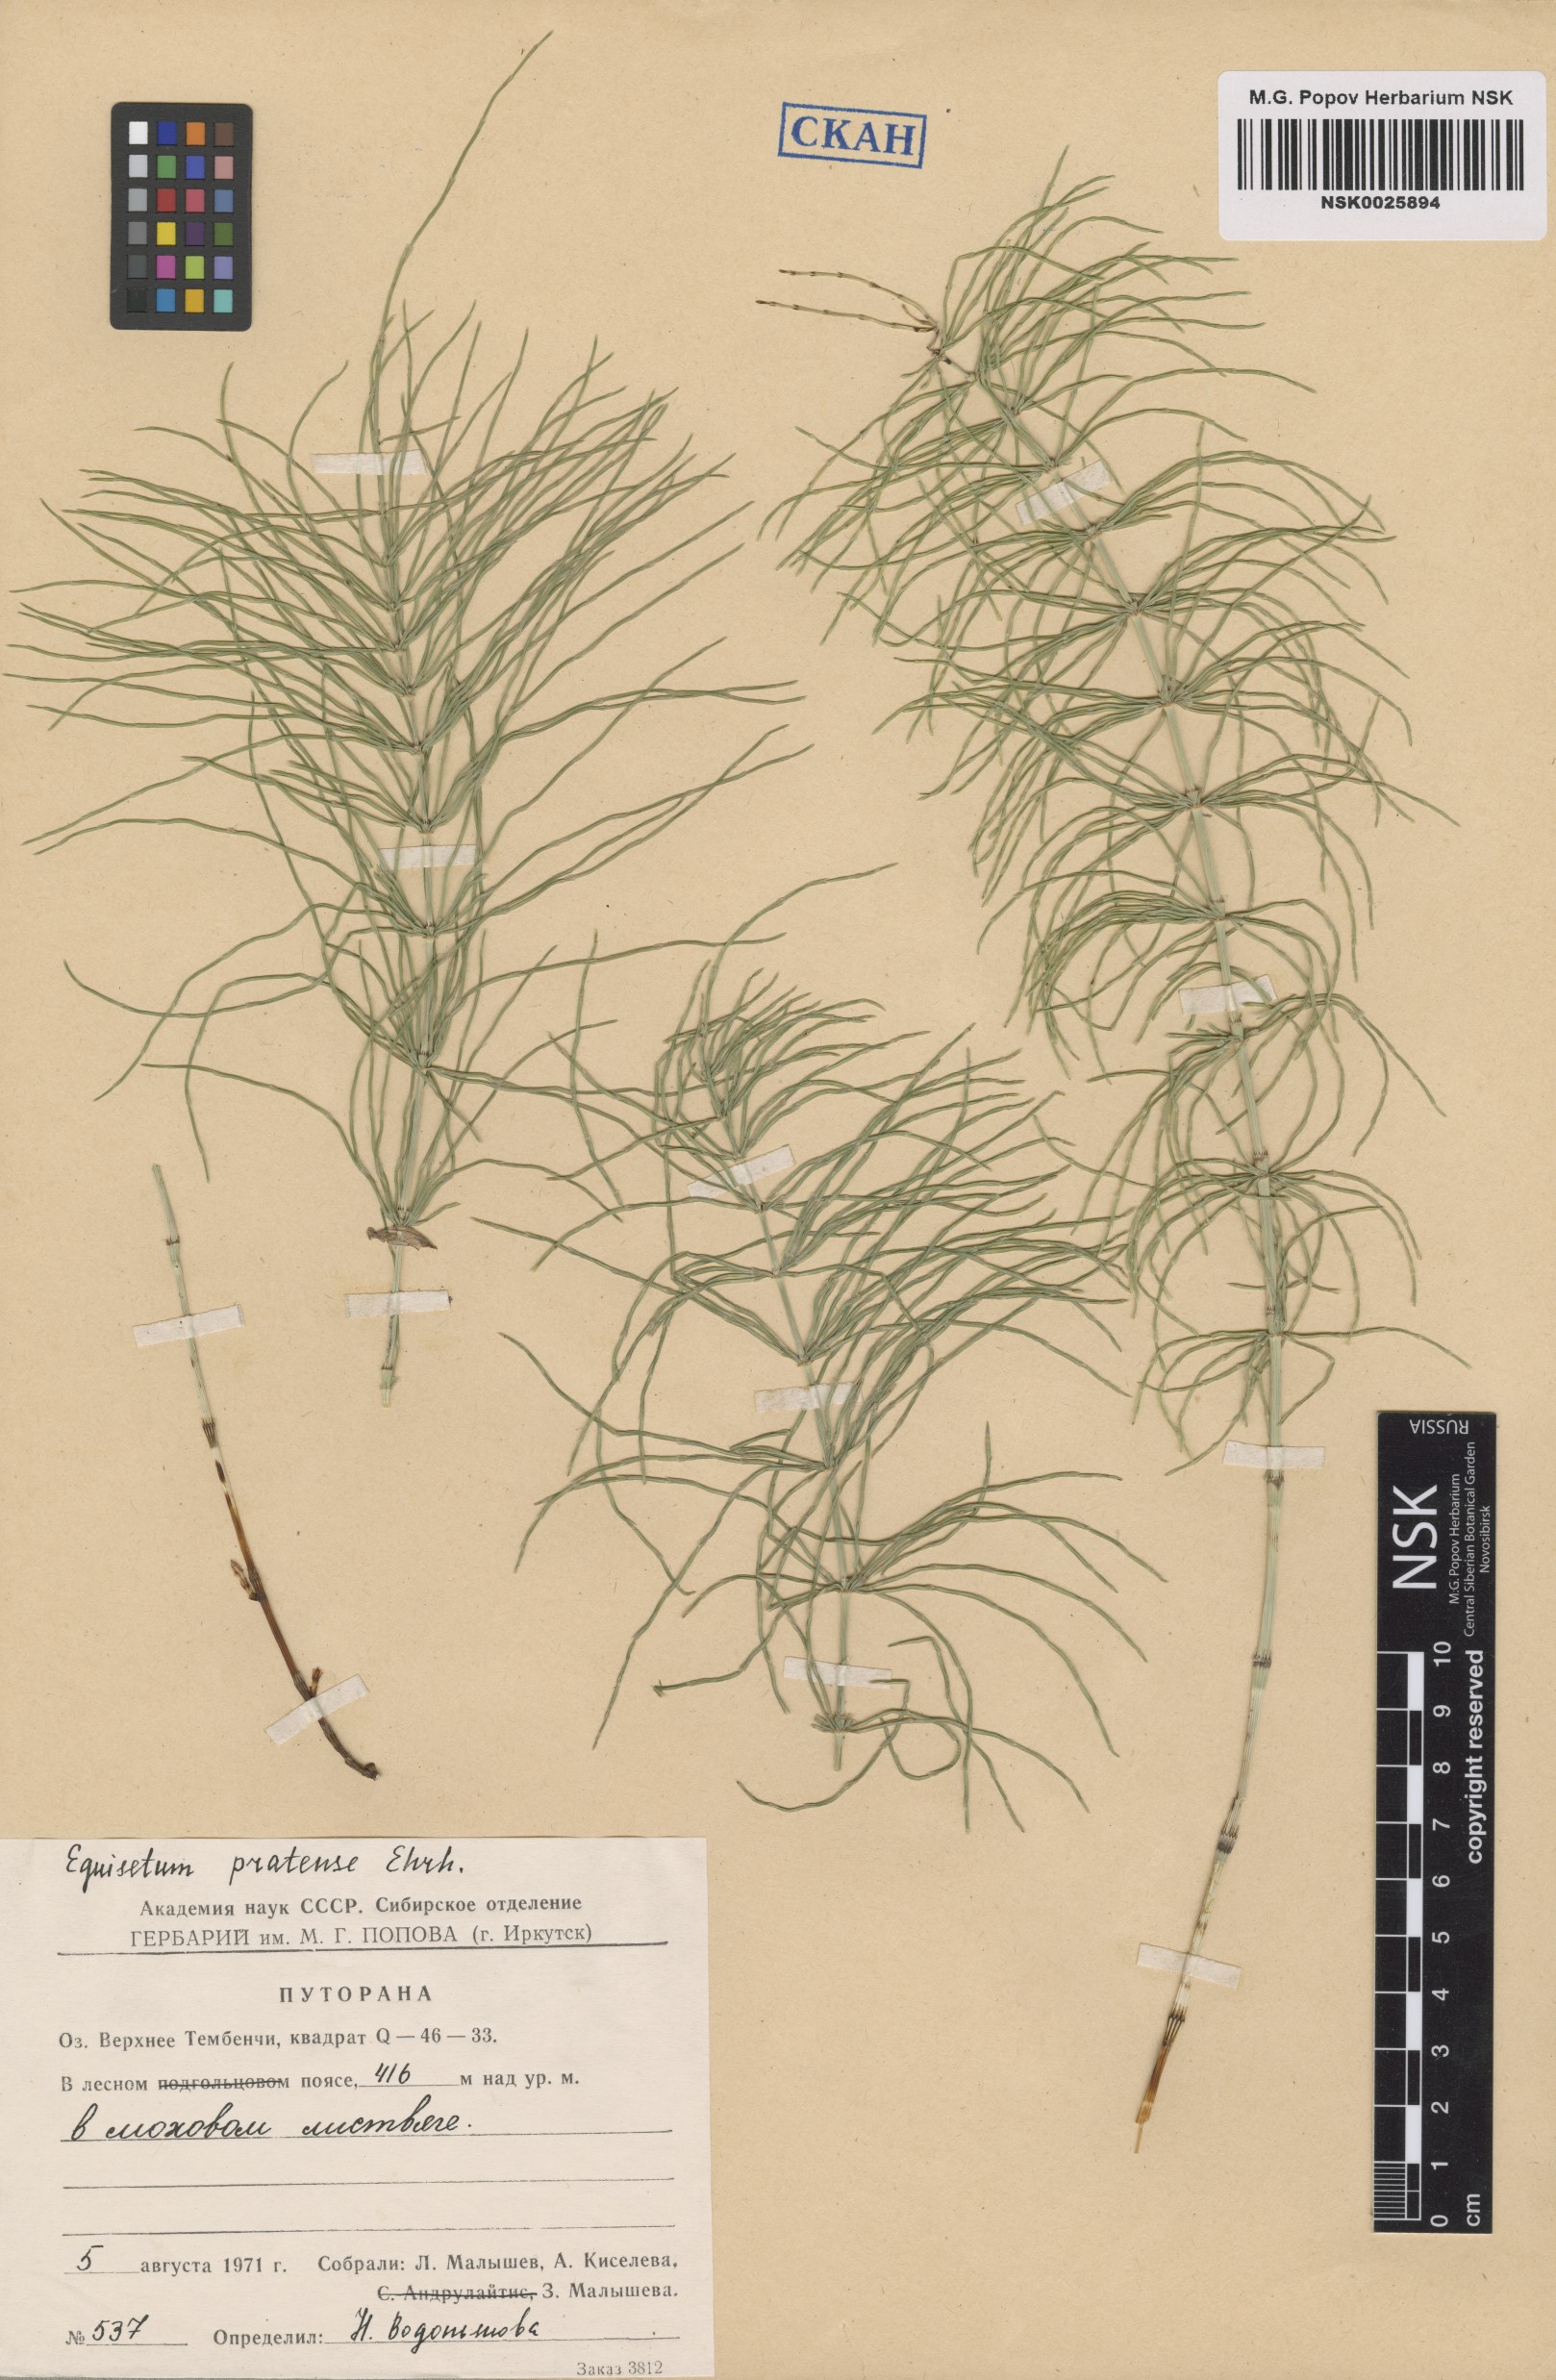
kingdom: Plantae
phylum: Tracheophyta
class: Polypodiopsida
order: Equisetales
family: Equisetaceae
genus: Equisetum
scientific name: Equisetum pratense
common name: Meadow horsetail
